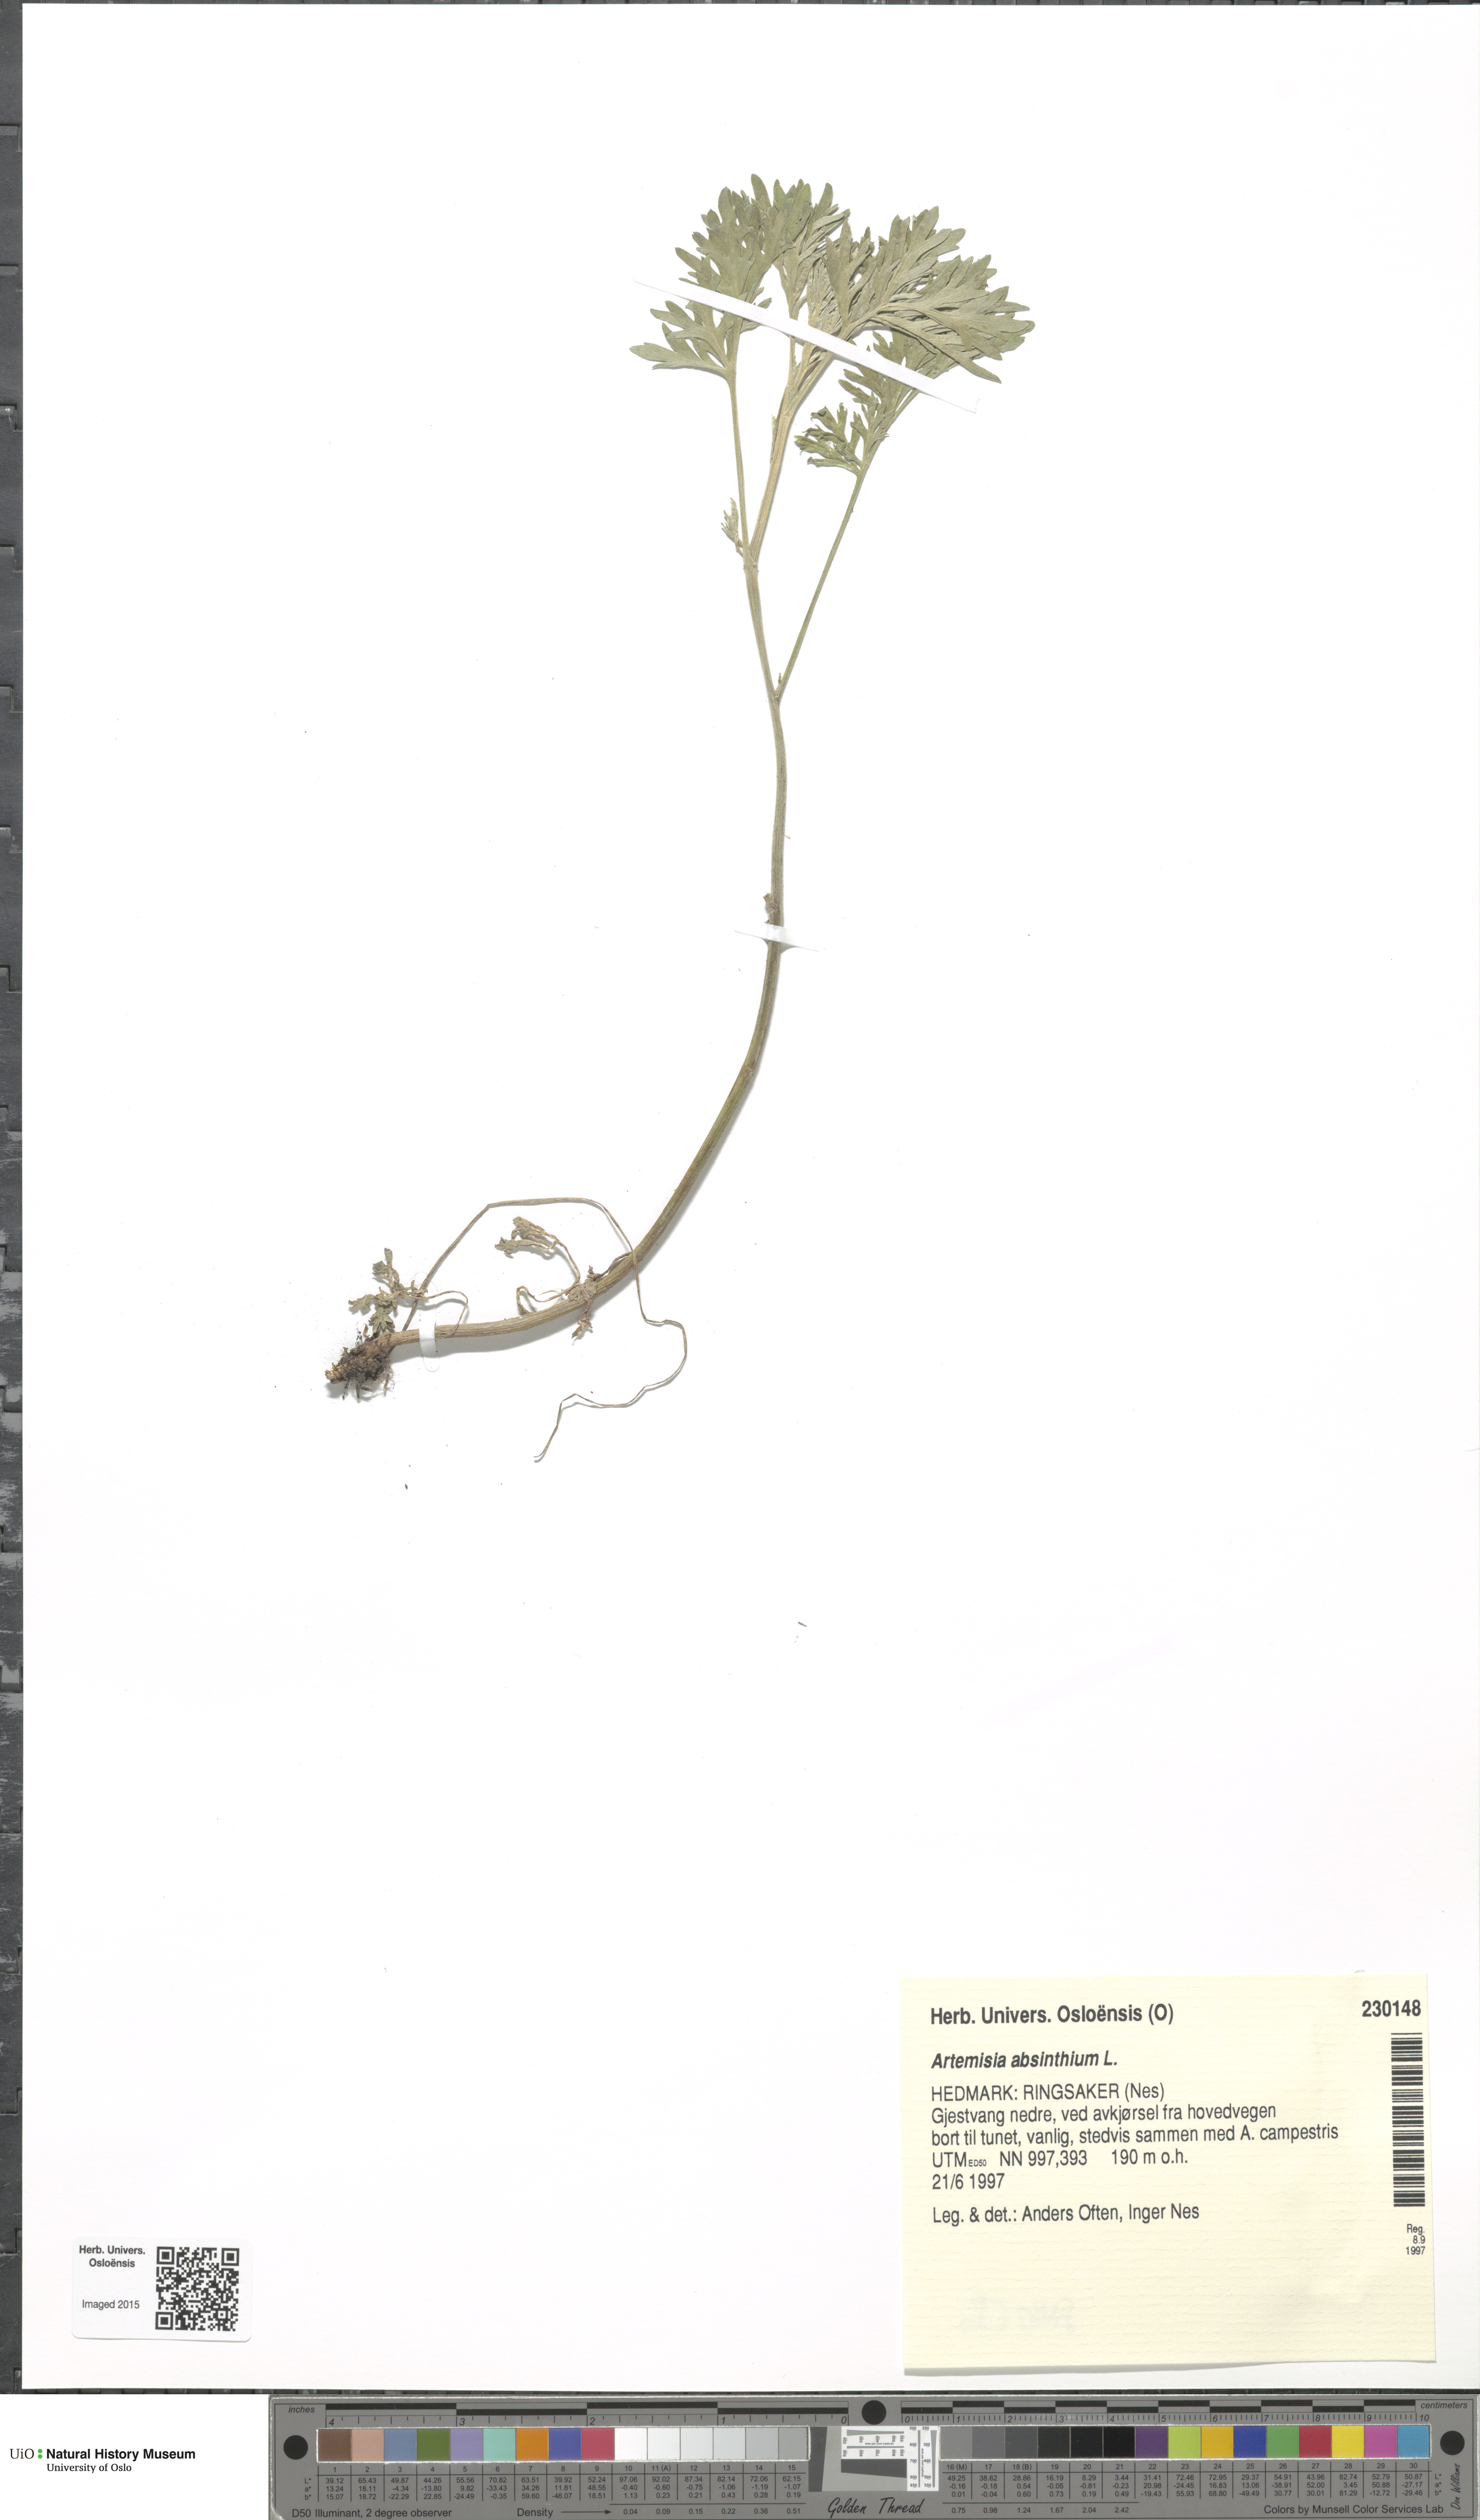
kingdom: Plantae
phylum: Tracheophyta
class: Magnoliopsida
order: Asterales
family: Asteraceae
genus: Artemisia
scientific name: Artemisia absinthium
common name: Wormwood
